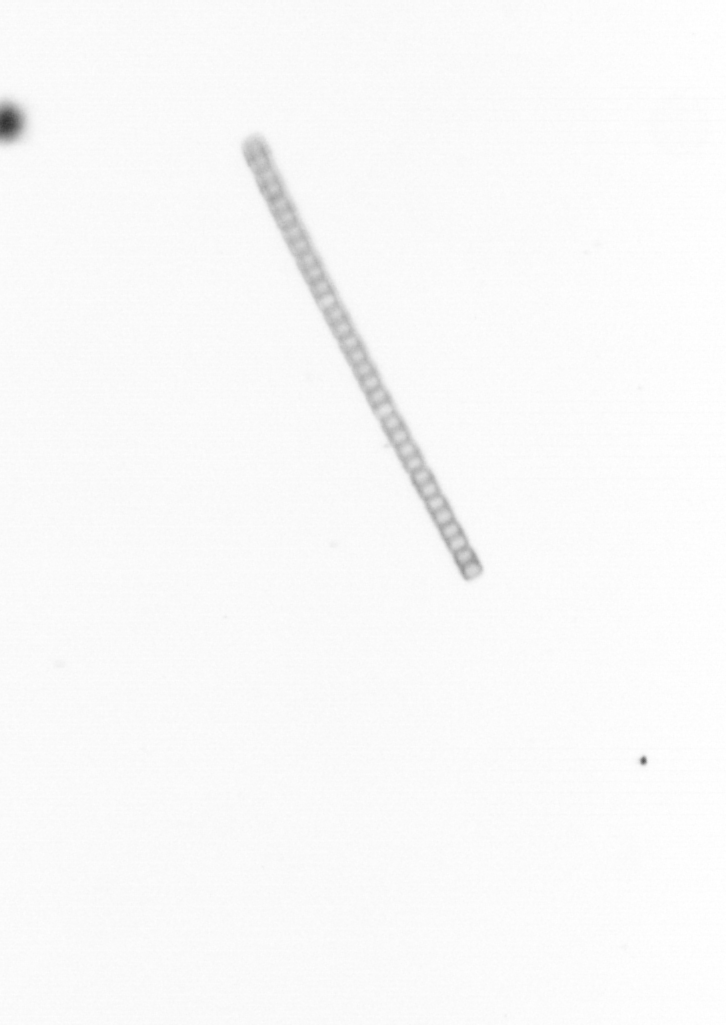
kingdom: Chromista
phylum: Ochrophyta
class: Bacillariophyceae
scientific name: Bacillariophyceae
